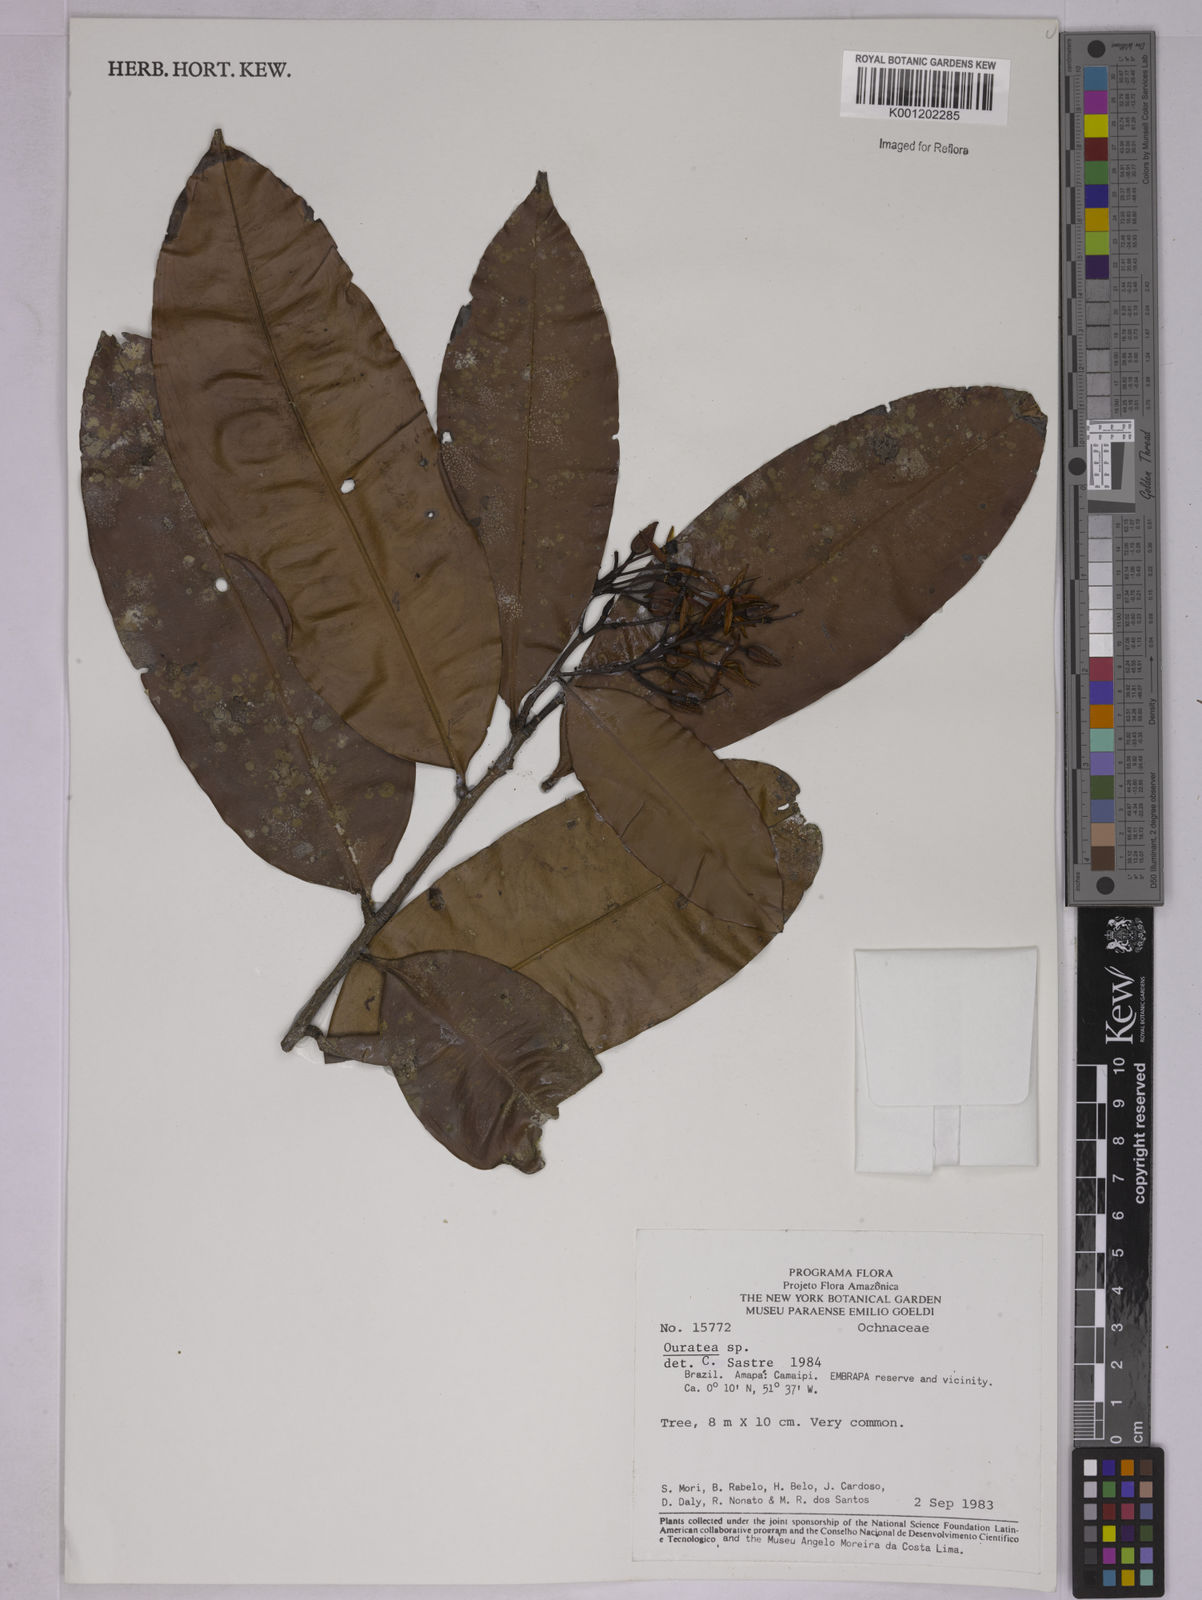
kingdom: Plantae
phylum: Tracheophyta
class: Magnoliopsida
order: Malpighiales
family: Ochnaceae
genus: Ouratea
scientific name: Ouratea
